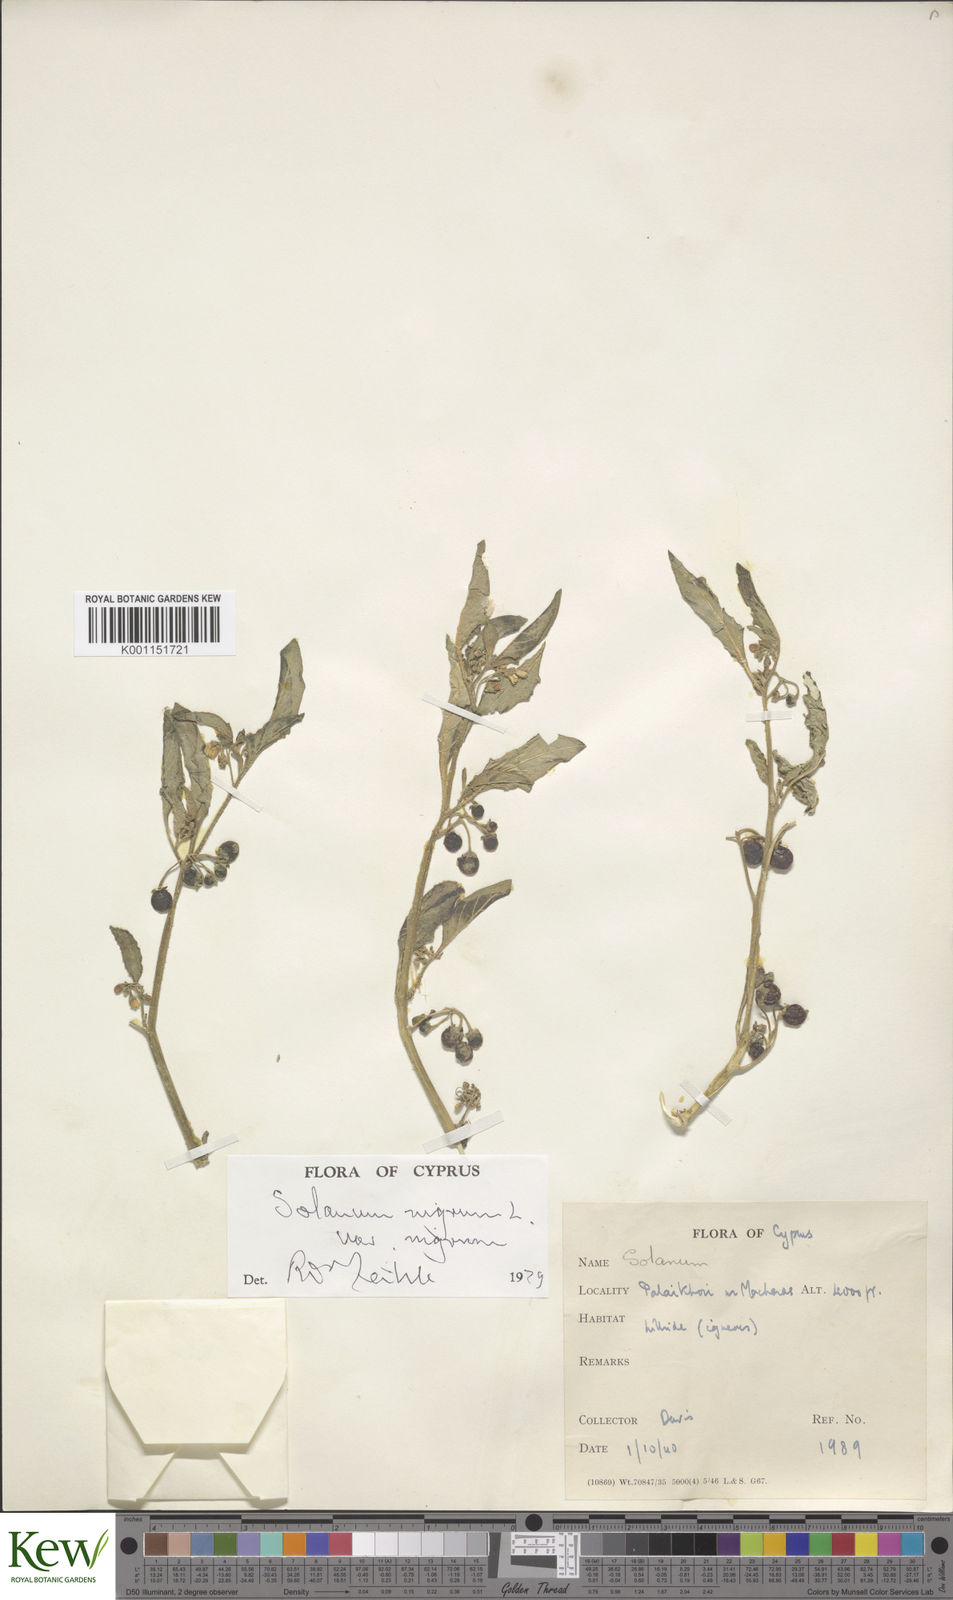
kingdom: Plantae
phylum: Tracheophyta
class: Magnoliopsida
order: Solanales
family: Solanaceae
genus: Solanum
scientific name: Solanum nigrum
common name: Black nightshade
